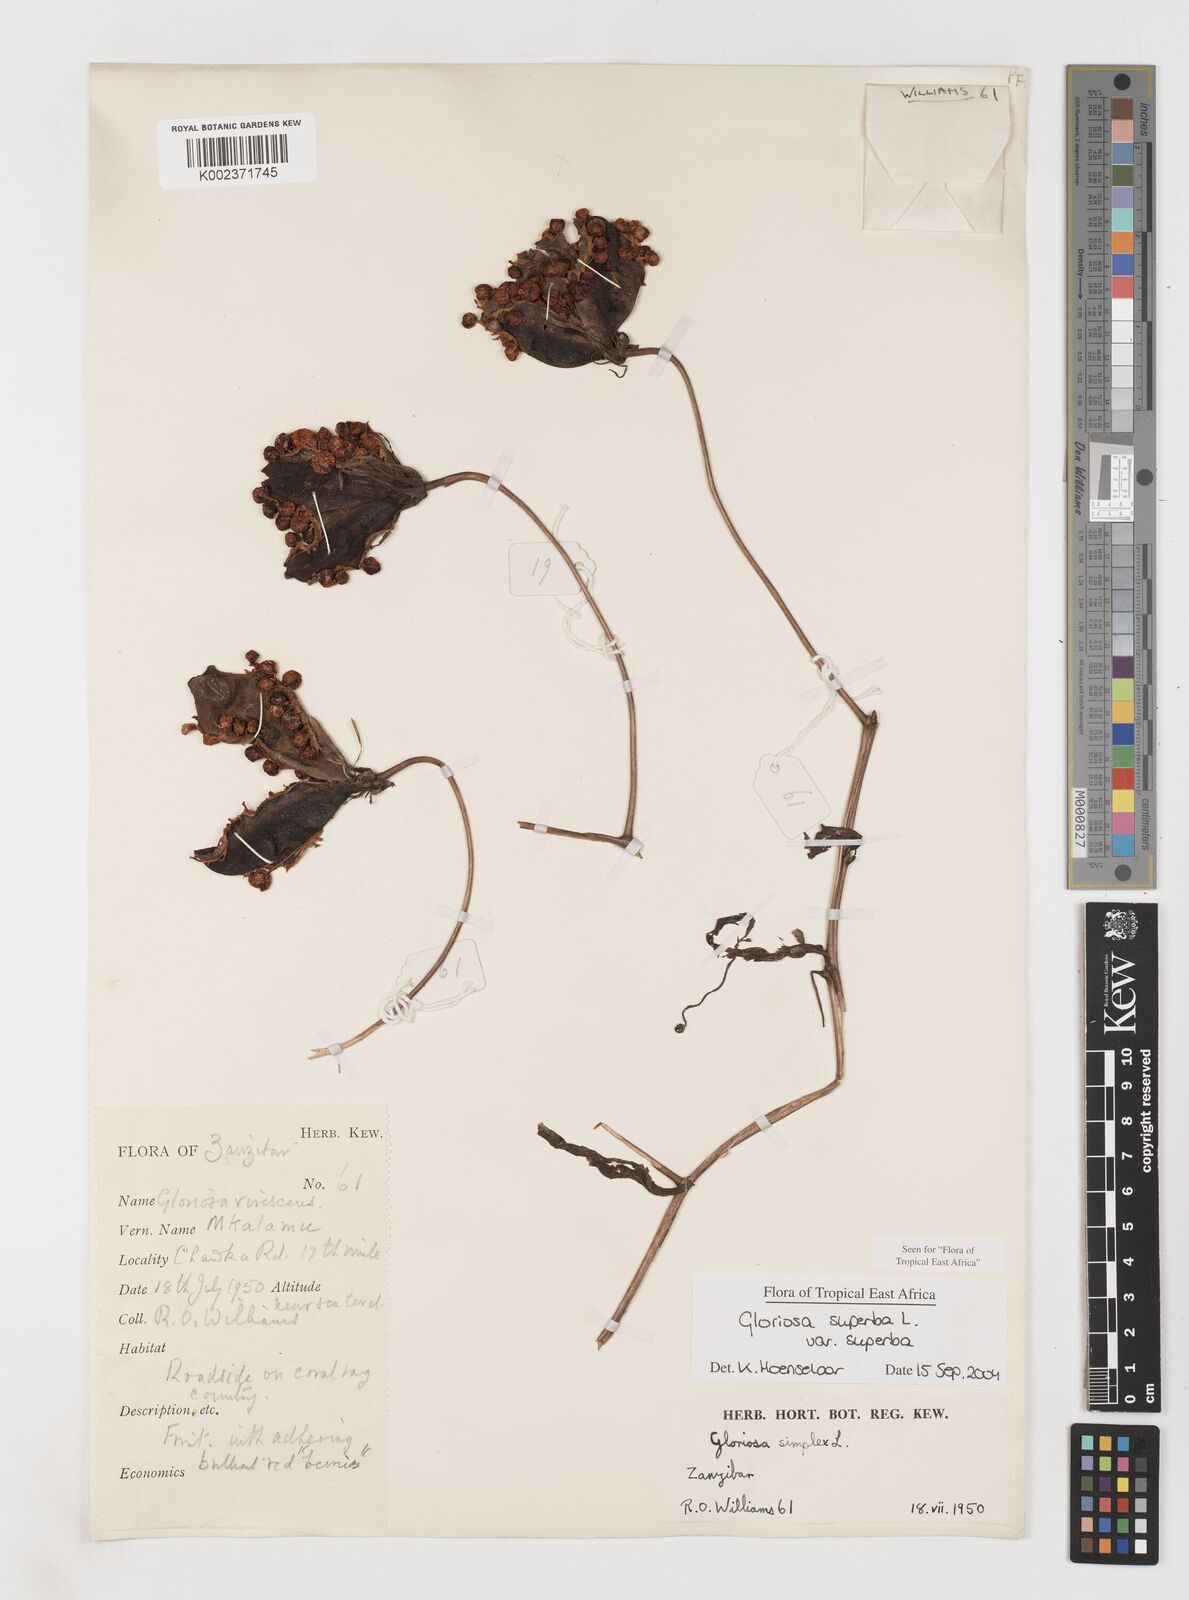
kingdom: Plantae
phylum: Tracheophyta
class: Liliopsida
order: Liliales
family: Colchicaceae
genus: Gloriosa
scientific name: Gloriosa simplex
